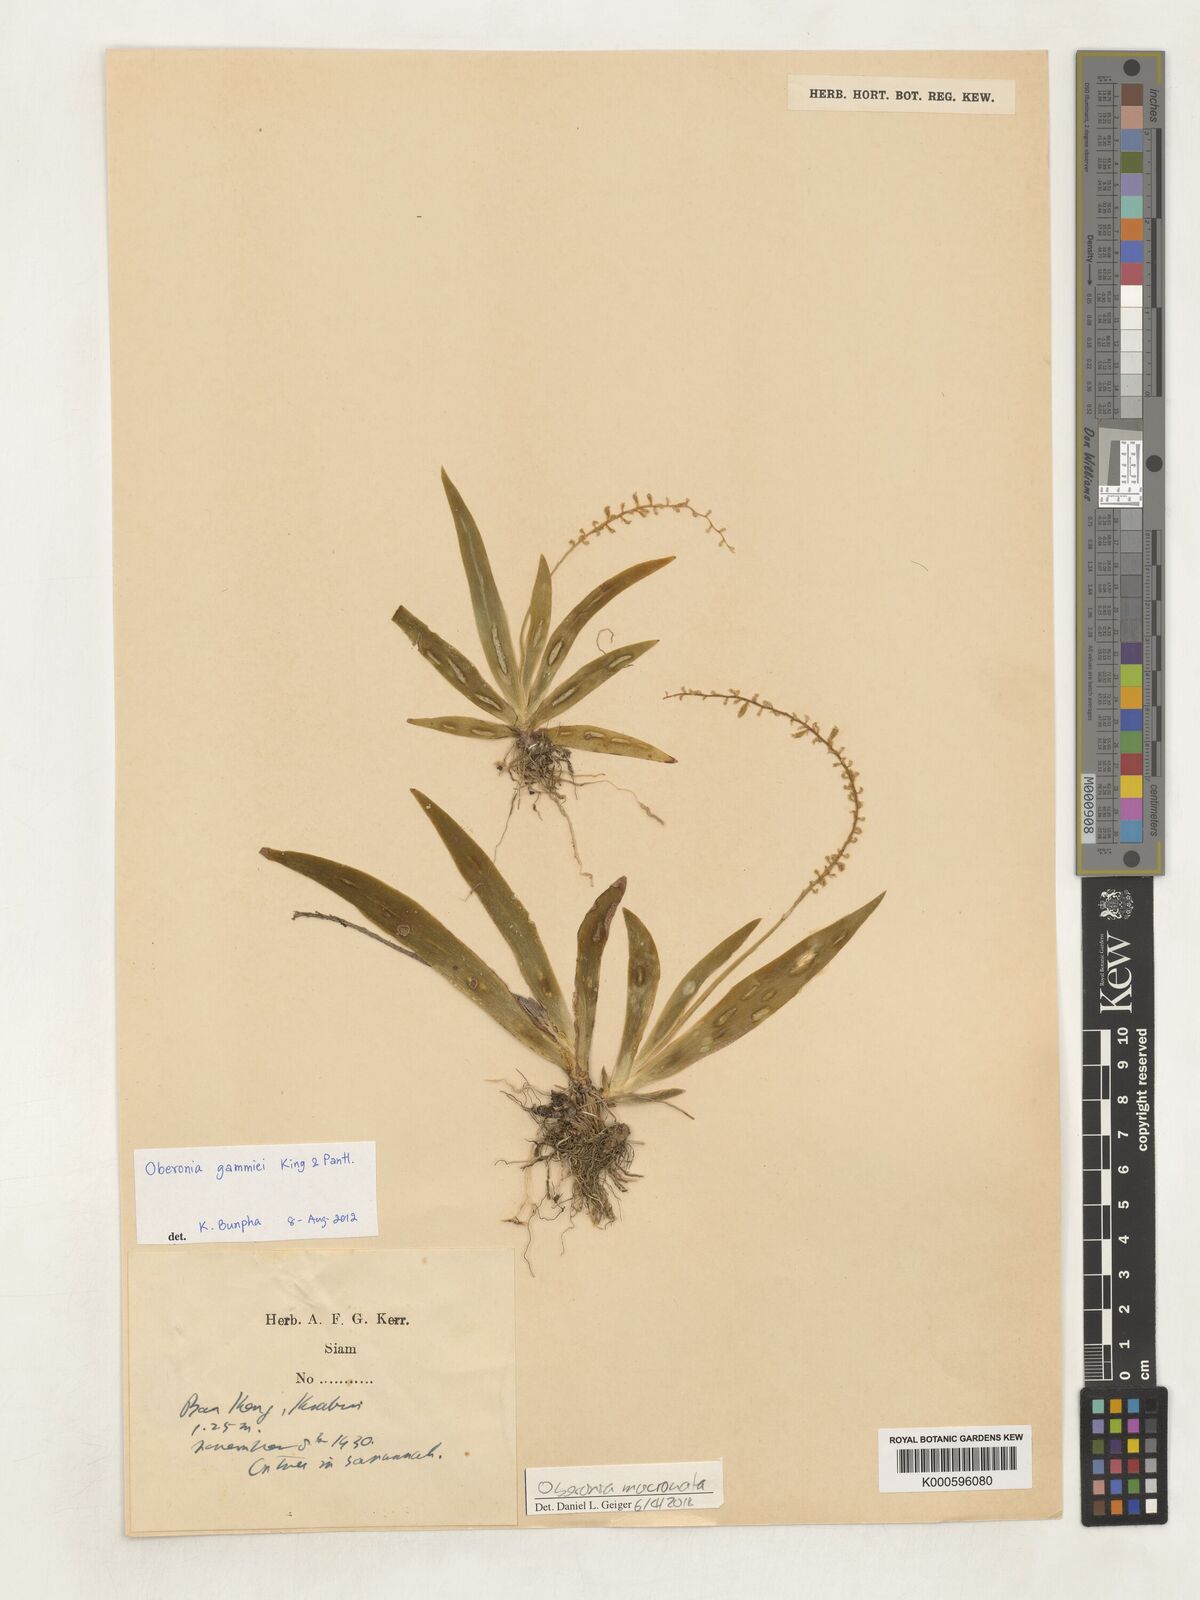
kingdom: Plantae
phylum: Tracheophyta
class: Liliopsida
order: Asparagales
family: Orchidaceae
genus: Oberonia
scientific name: Oberonia mucronata
